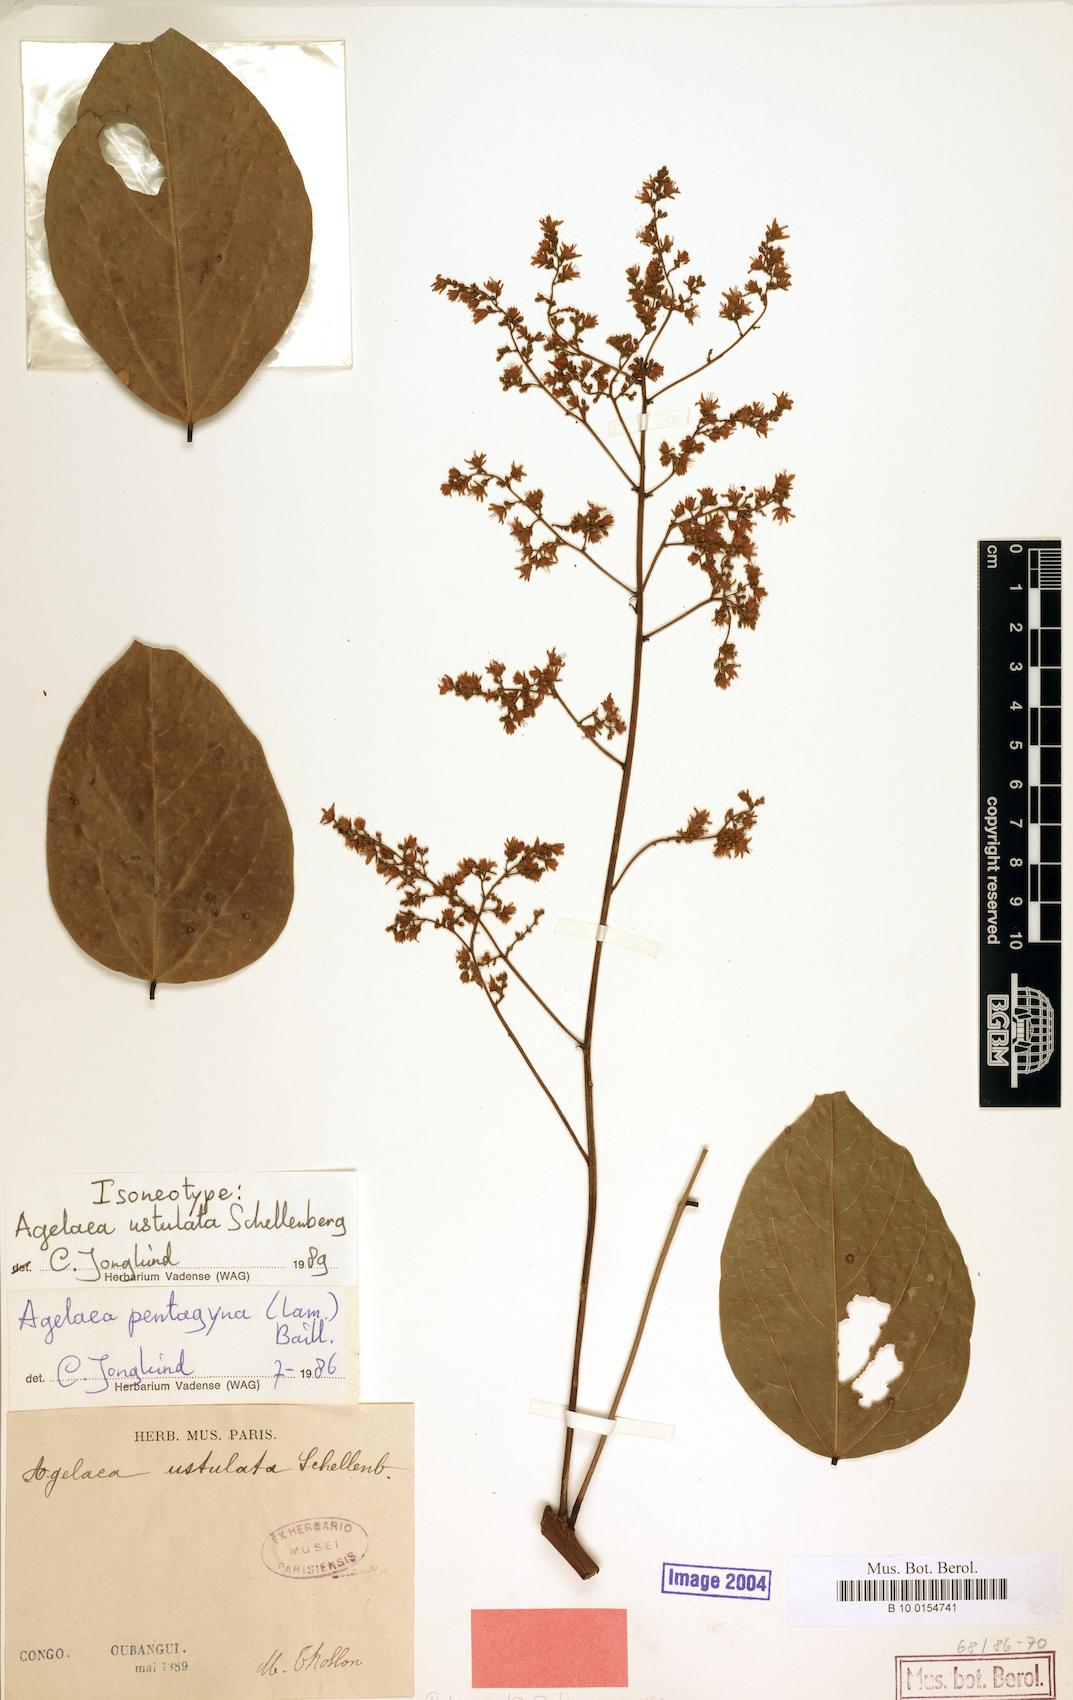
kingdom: Plantae
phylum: Tracheophyta
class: Magnoliopsida
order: Oxalidales
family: Connaraceae
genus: Agelaea
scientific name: Agelaea pentagyna
